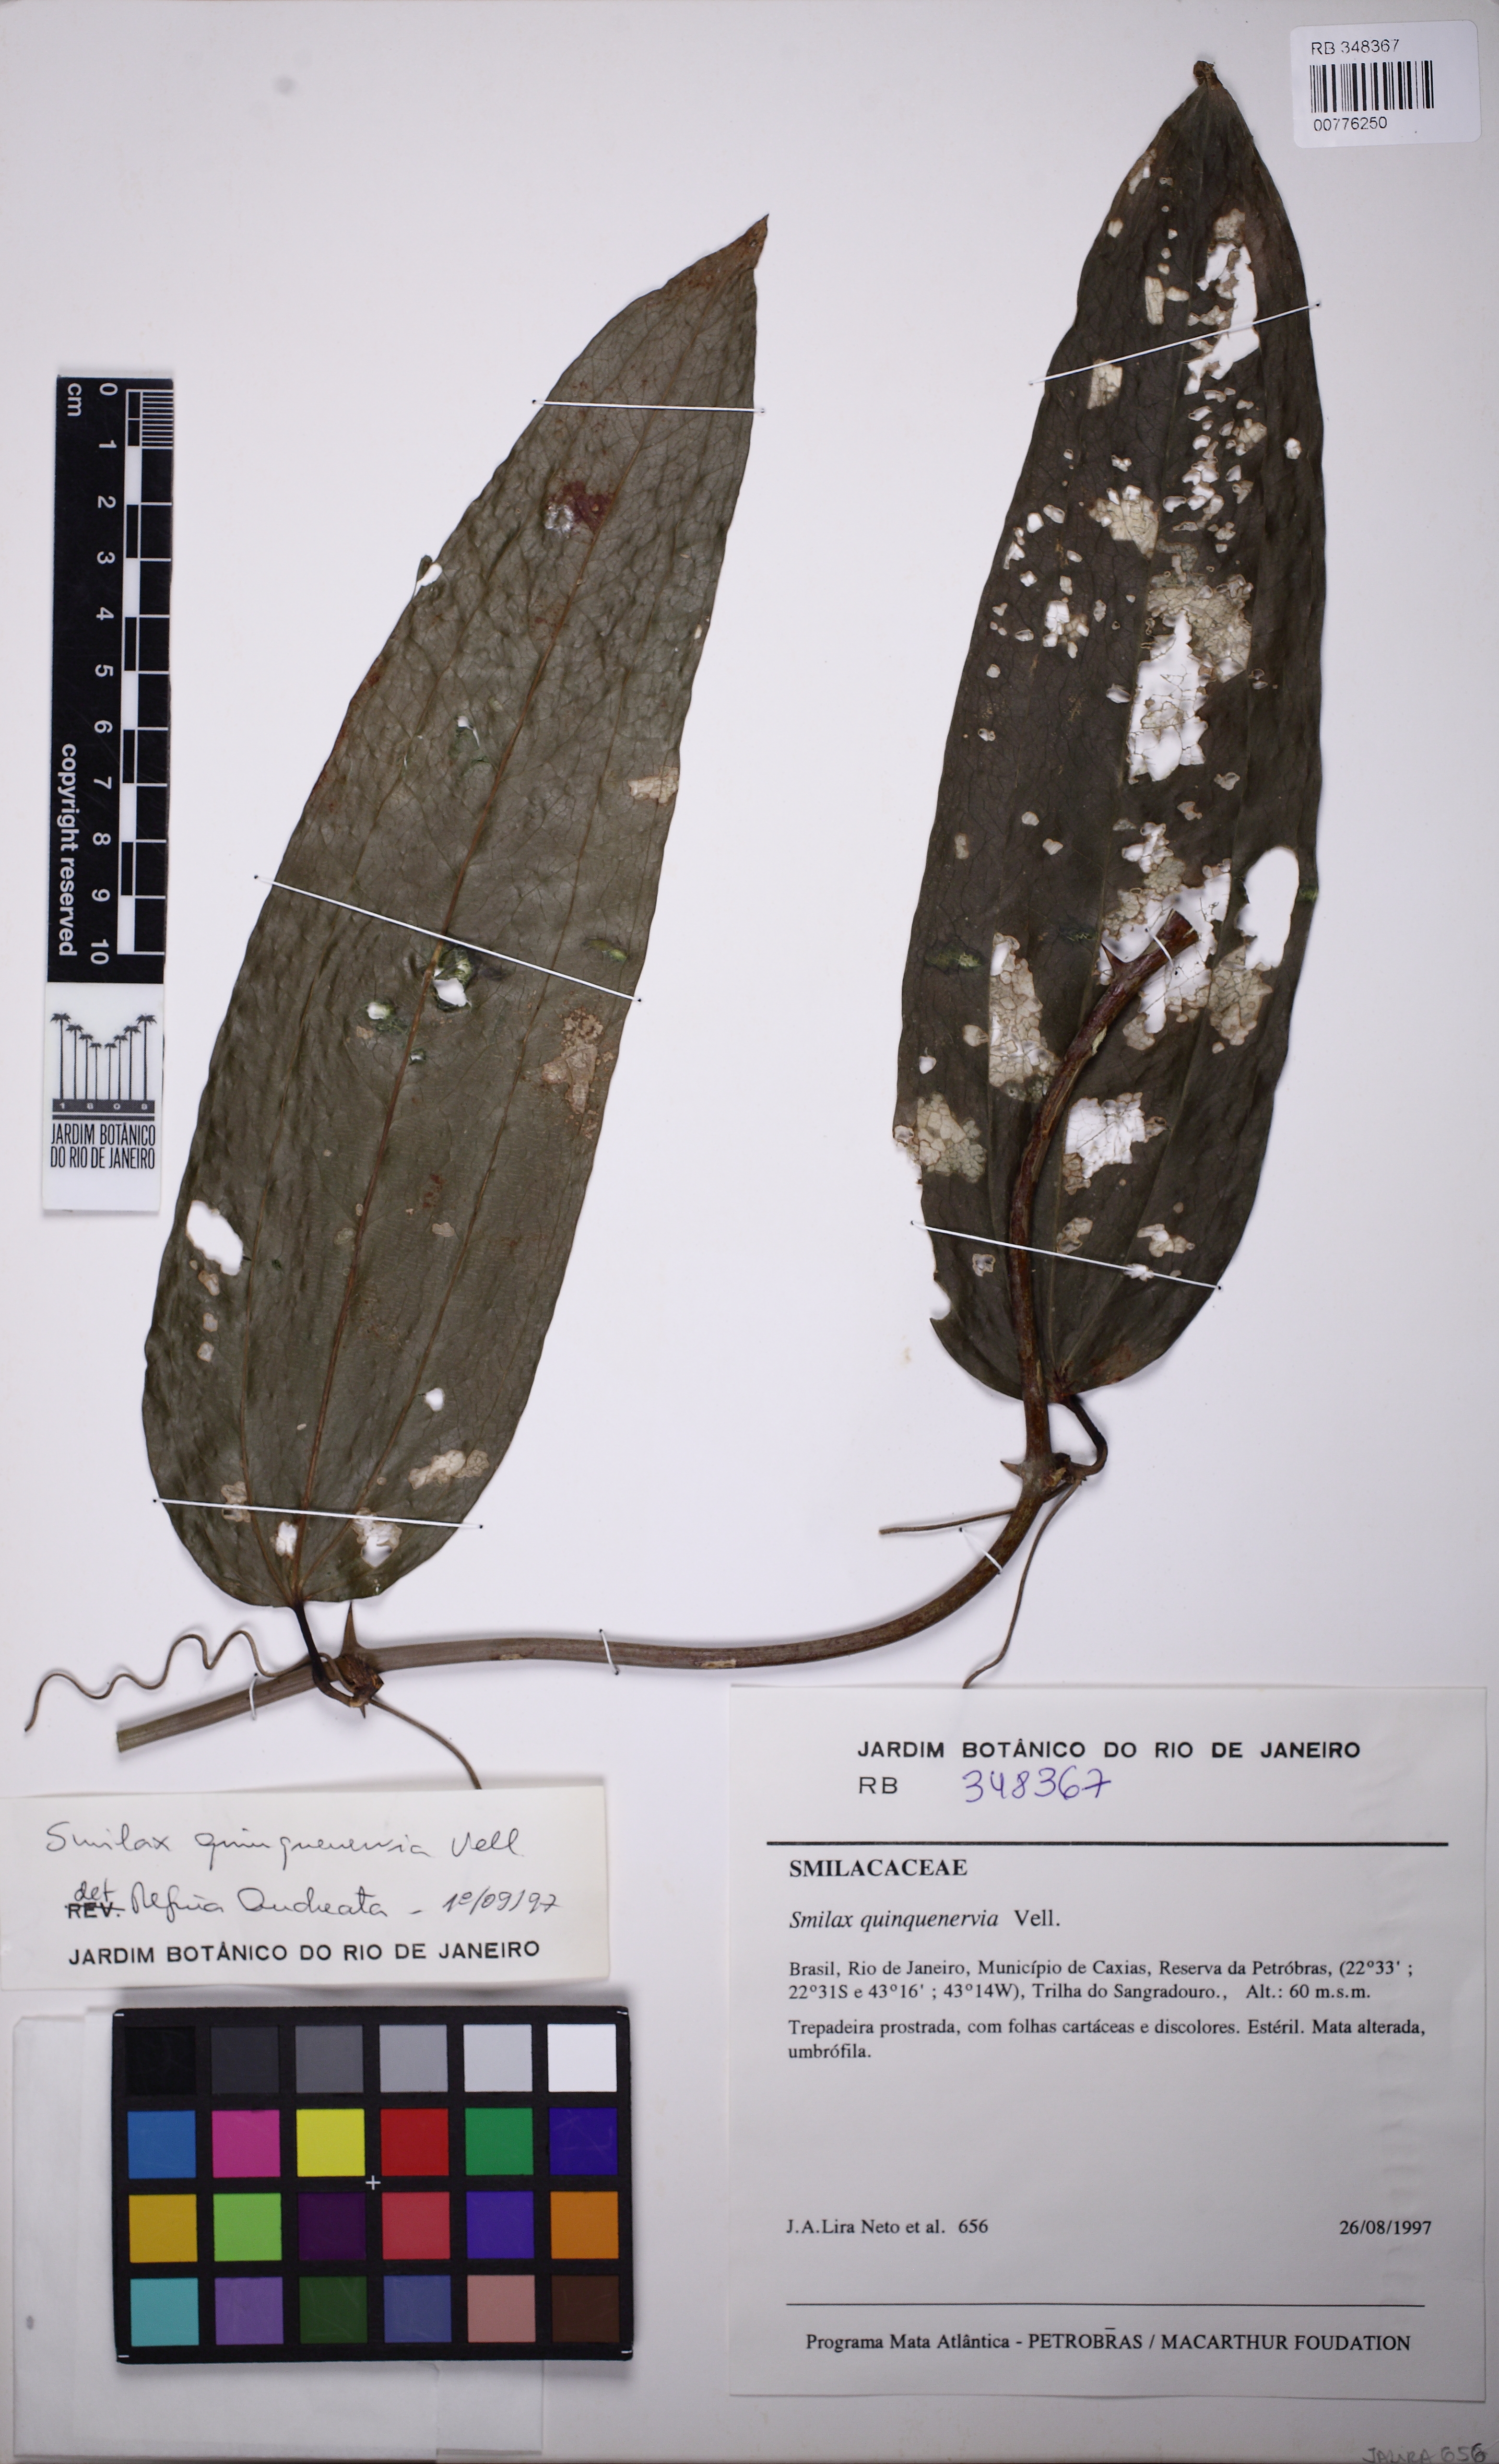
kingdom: Plantae
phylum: Tracheophyta
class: Liliopsida
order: Liliales
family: Smilacaceae
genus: Smilax
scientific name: Smilax quinquenervia
